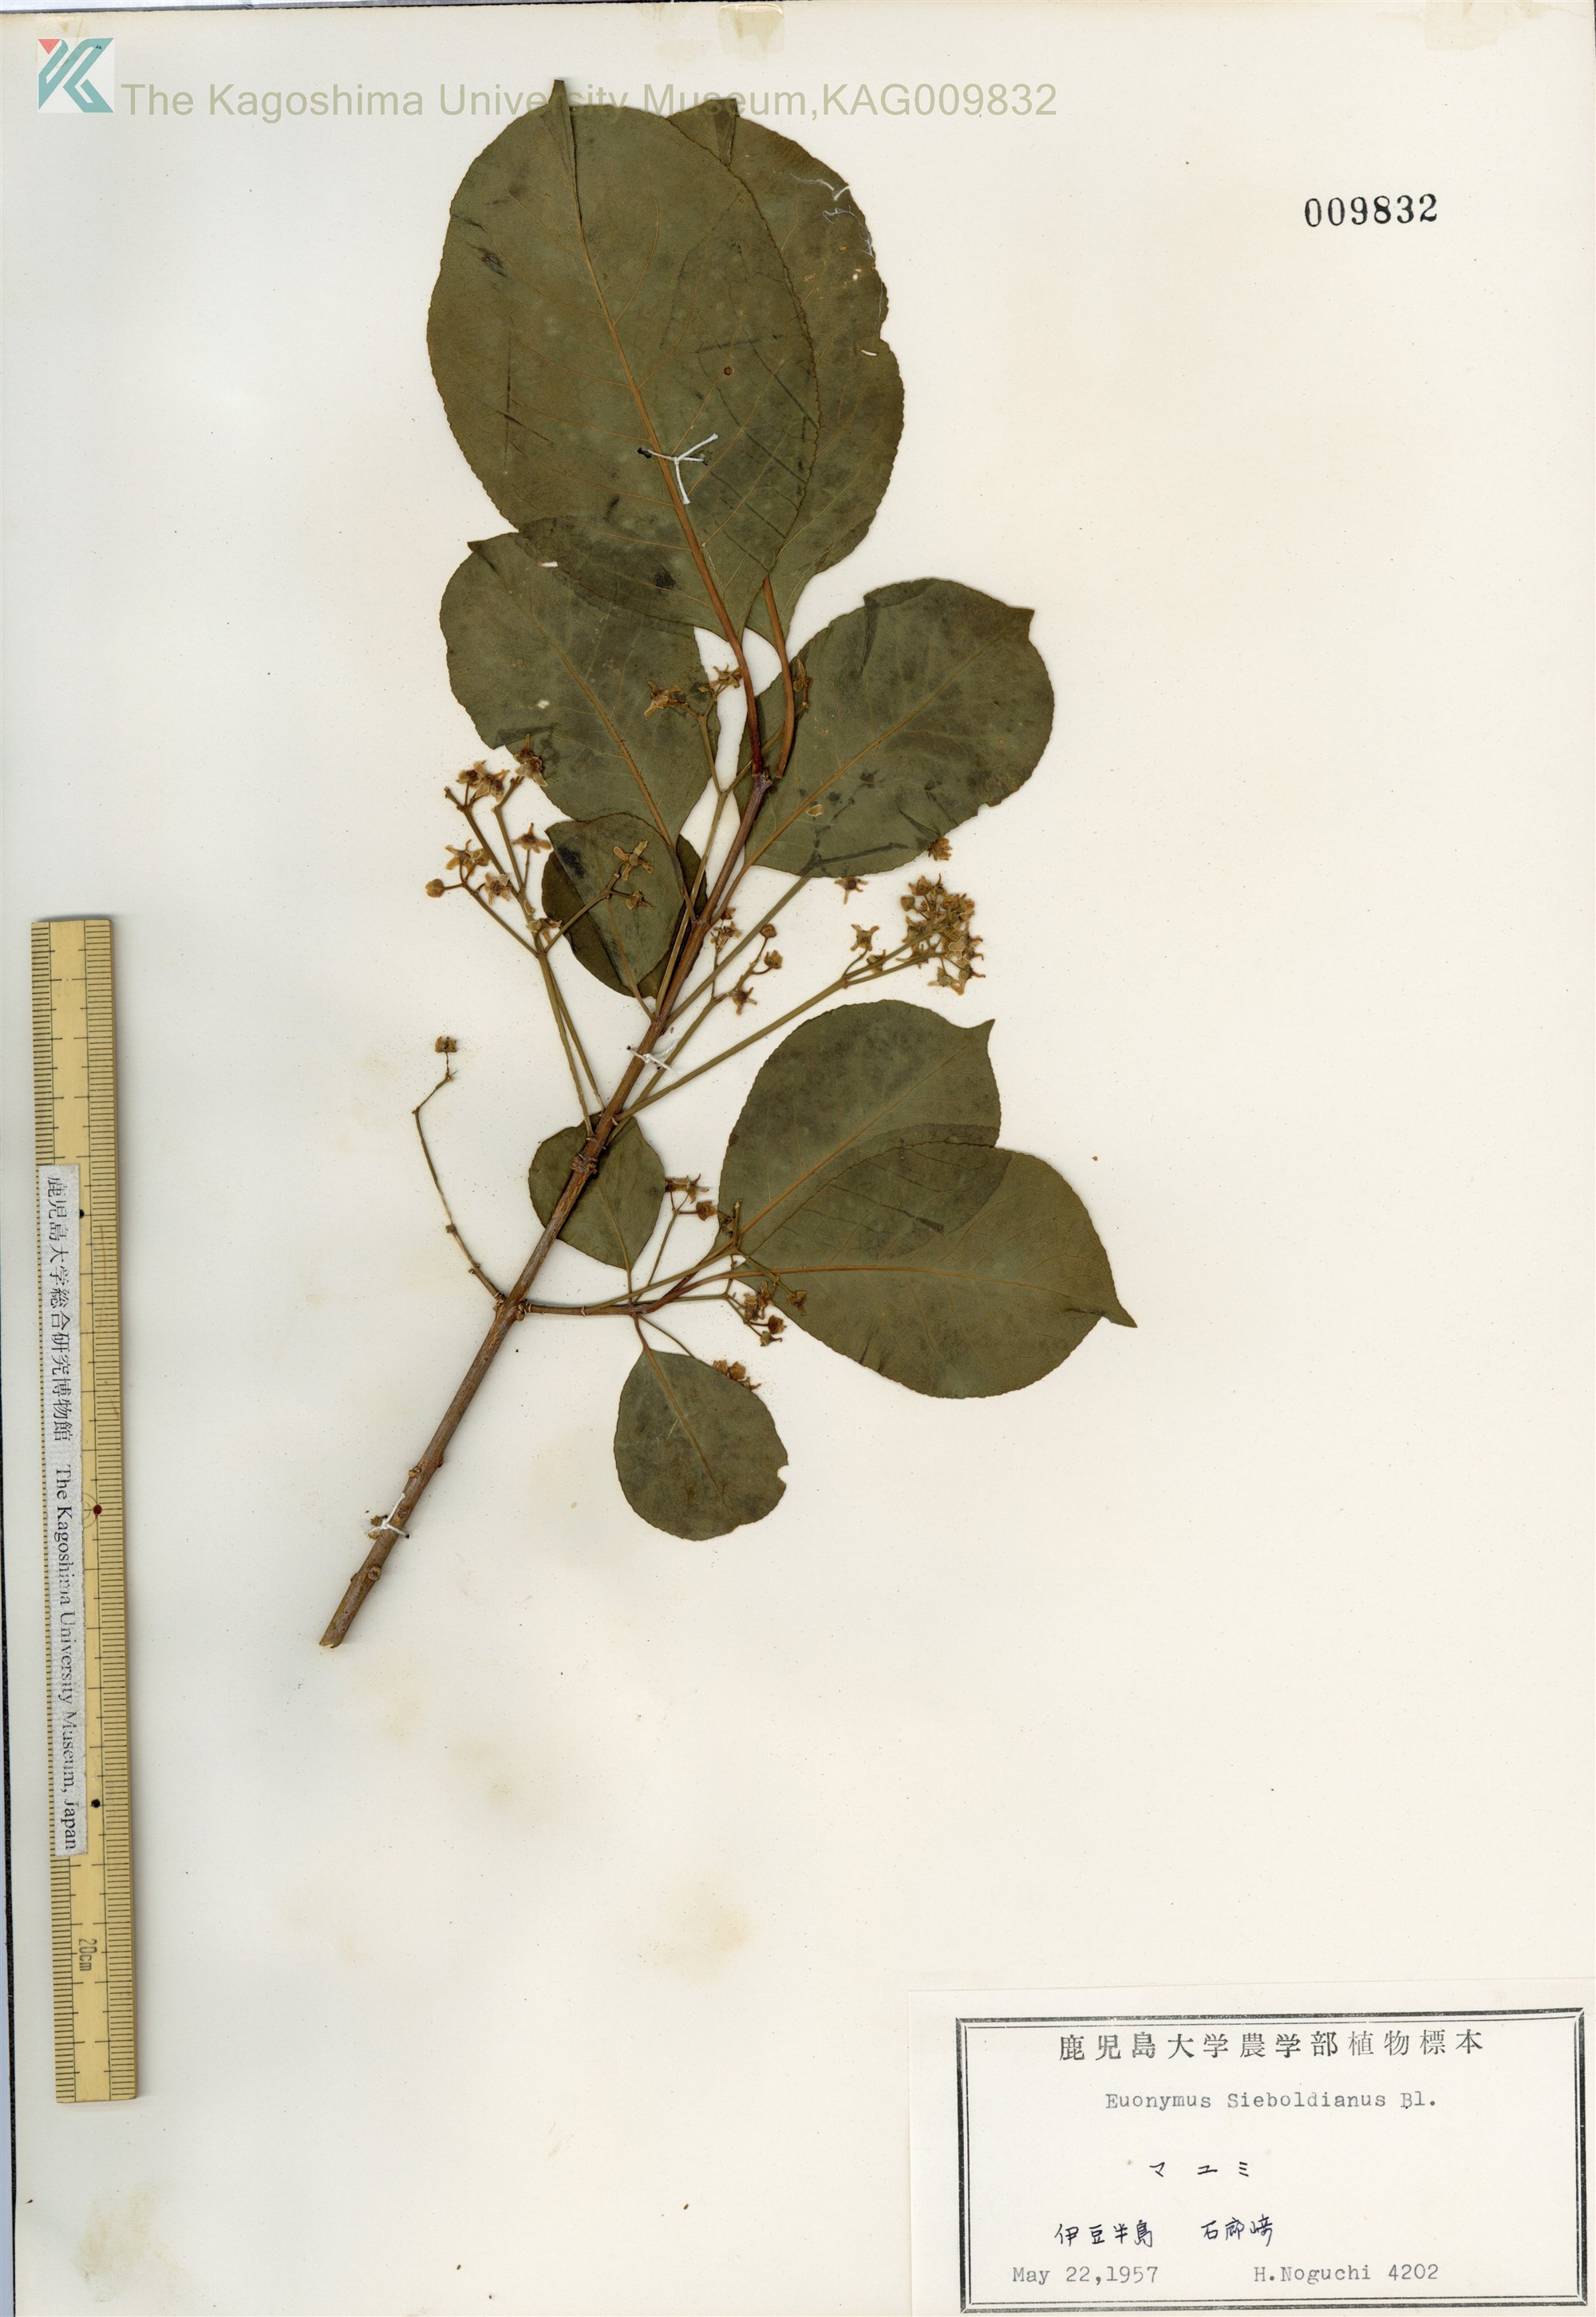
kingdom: Plantae
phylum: Tracheophyta
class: Magnoliopsida
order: Celastrales
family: Celastraceae
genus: Euonymus
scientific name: Euonymus hamiltonianus
